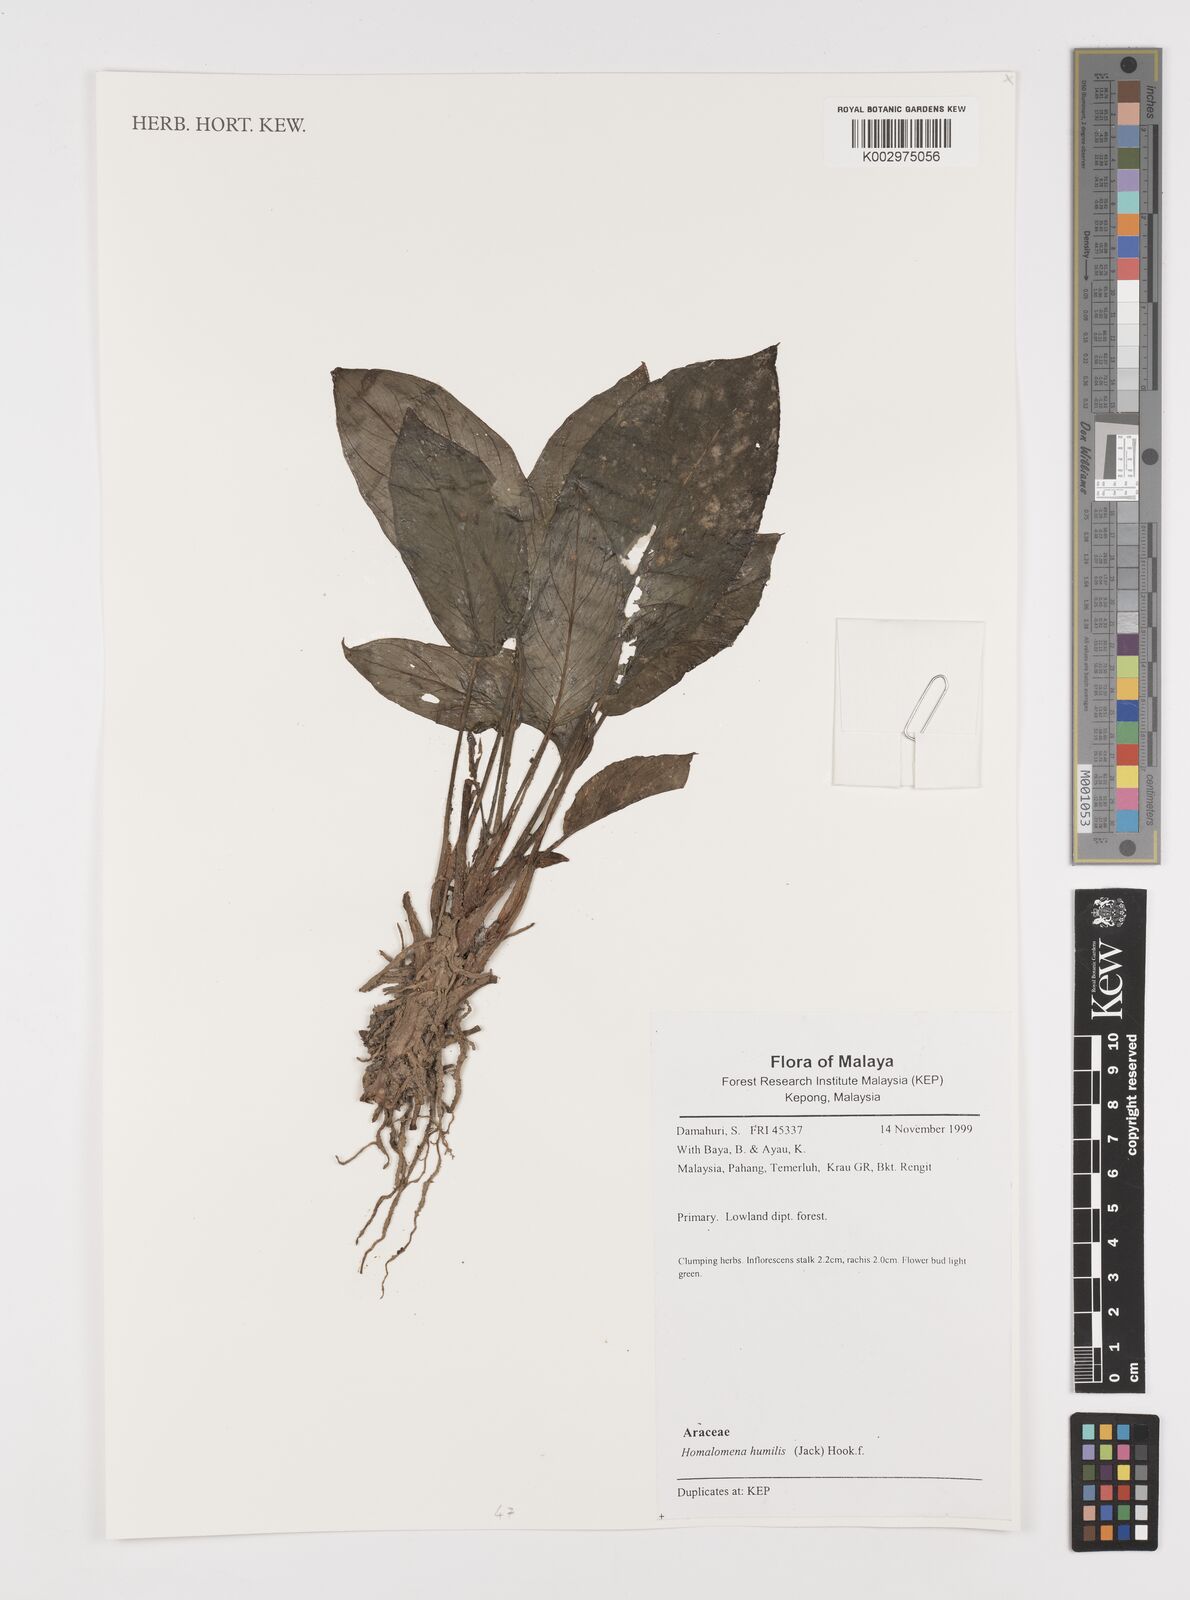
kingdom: Plantae
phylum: Tracheophyta
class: Liliopsida
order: Alismatales
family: Araceae
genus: Homalomena
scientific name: Homalomena humilis
